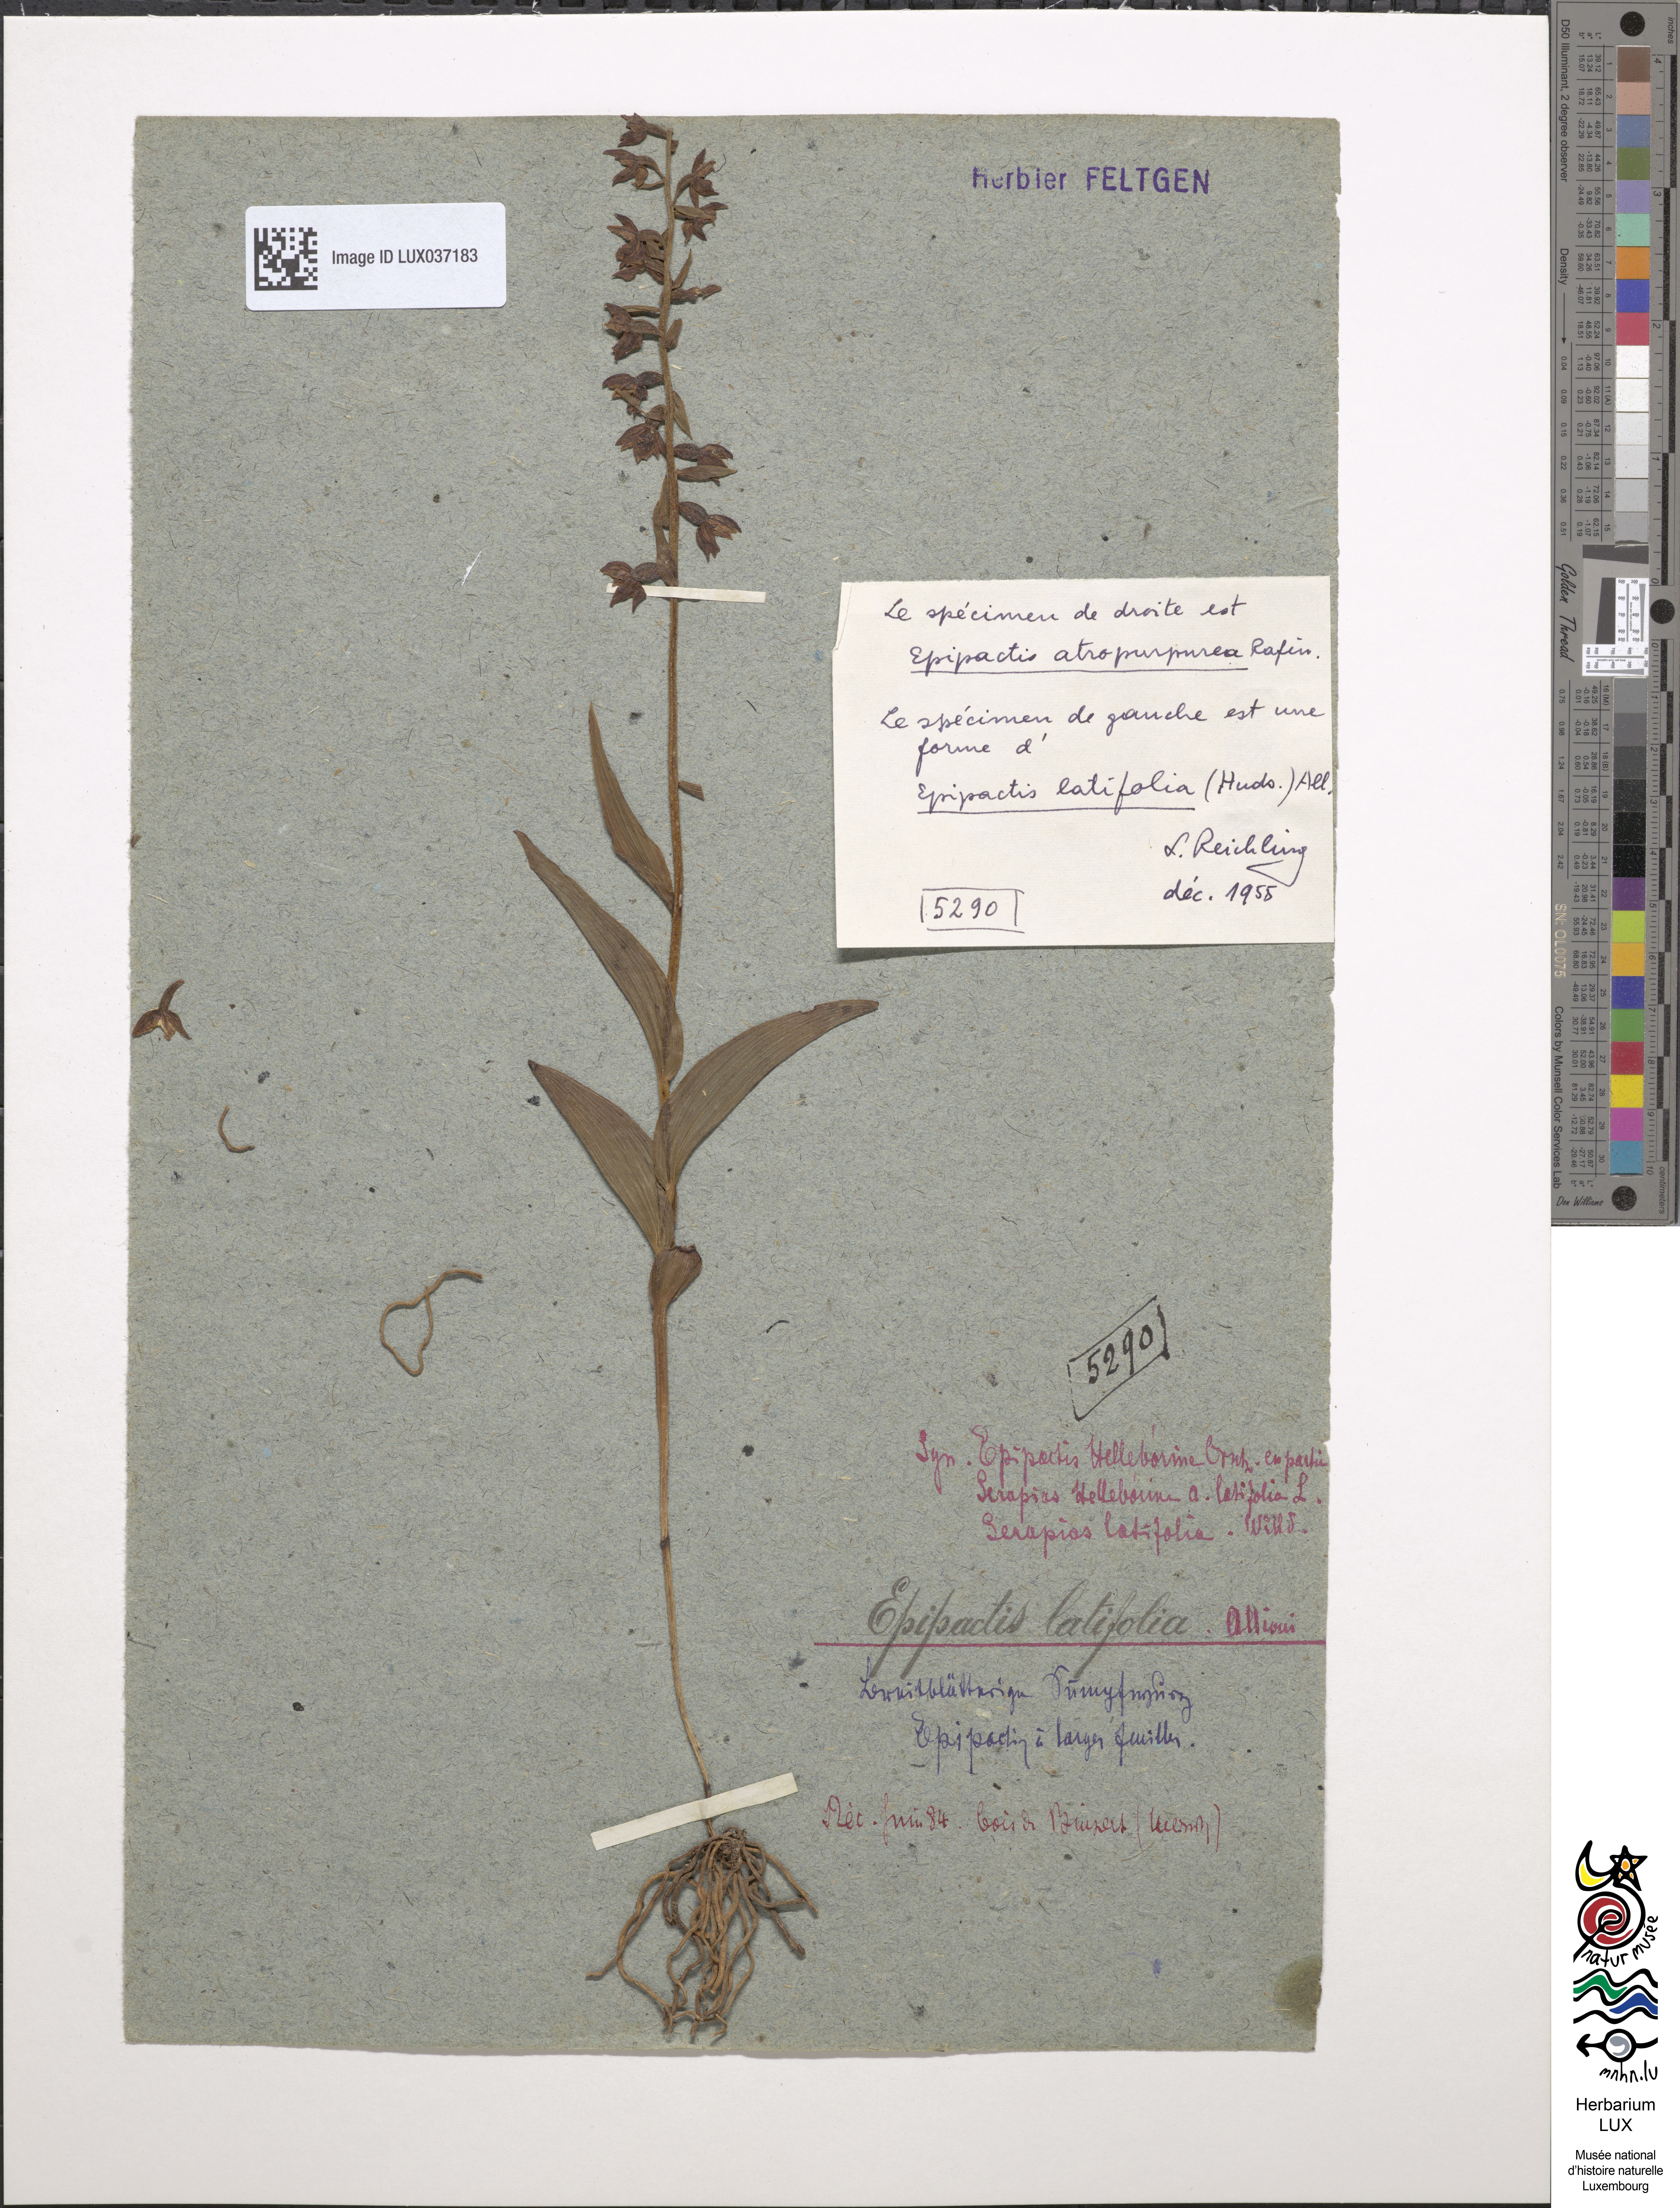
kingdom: Plantae
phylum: Tracheophyta
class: Liliopsida
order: Asparagales
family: Orchidaceae
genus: Epipactis
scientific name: Epipactis helleborine
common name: Broad-leaved helleborine
